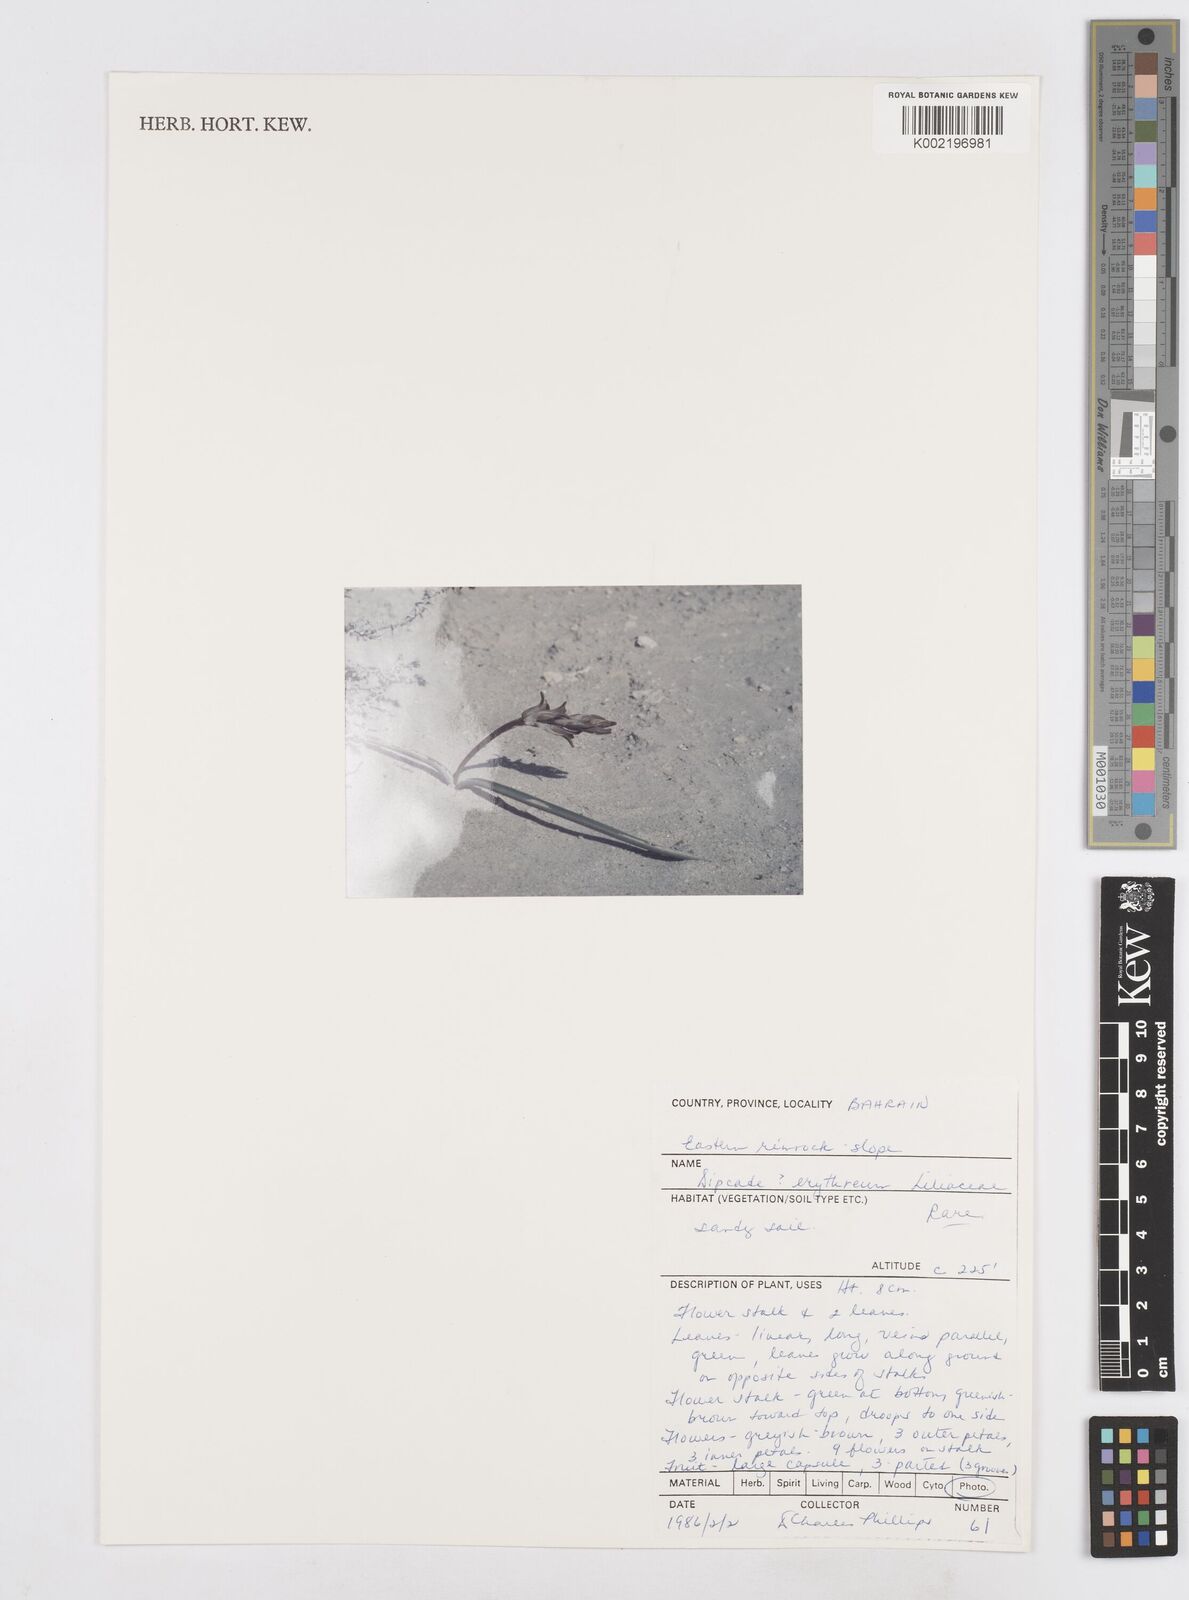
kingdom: Plantae
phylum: Tracheophyta
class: Liliopsida
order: Asparagales
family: Asparagaceae
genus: Dipcadi
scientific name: Dipcadi erythraeum
